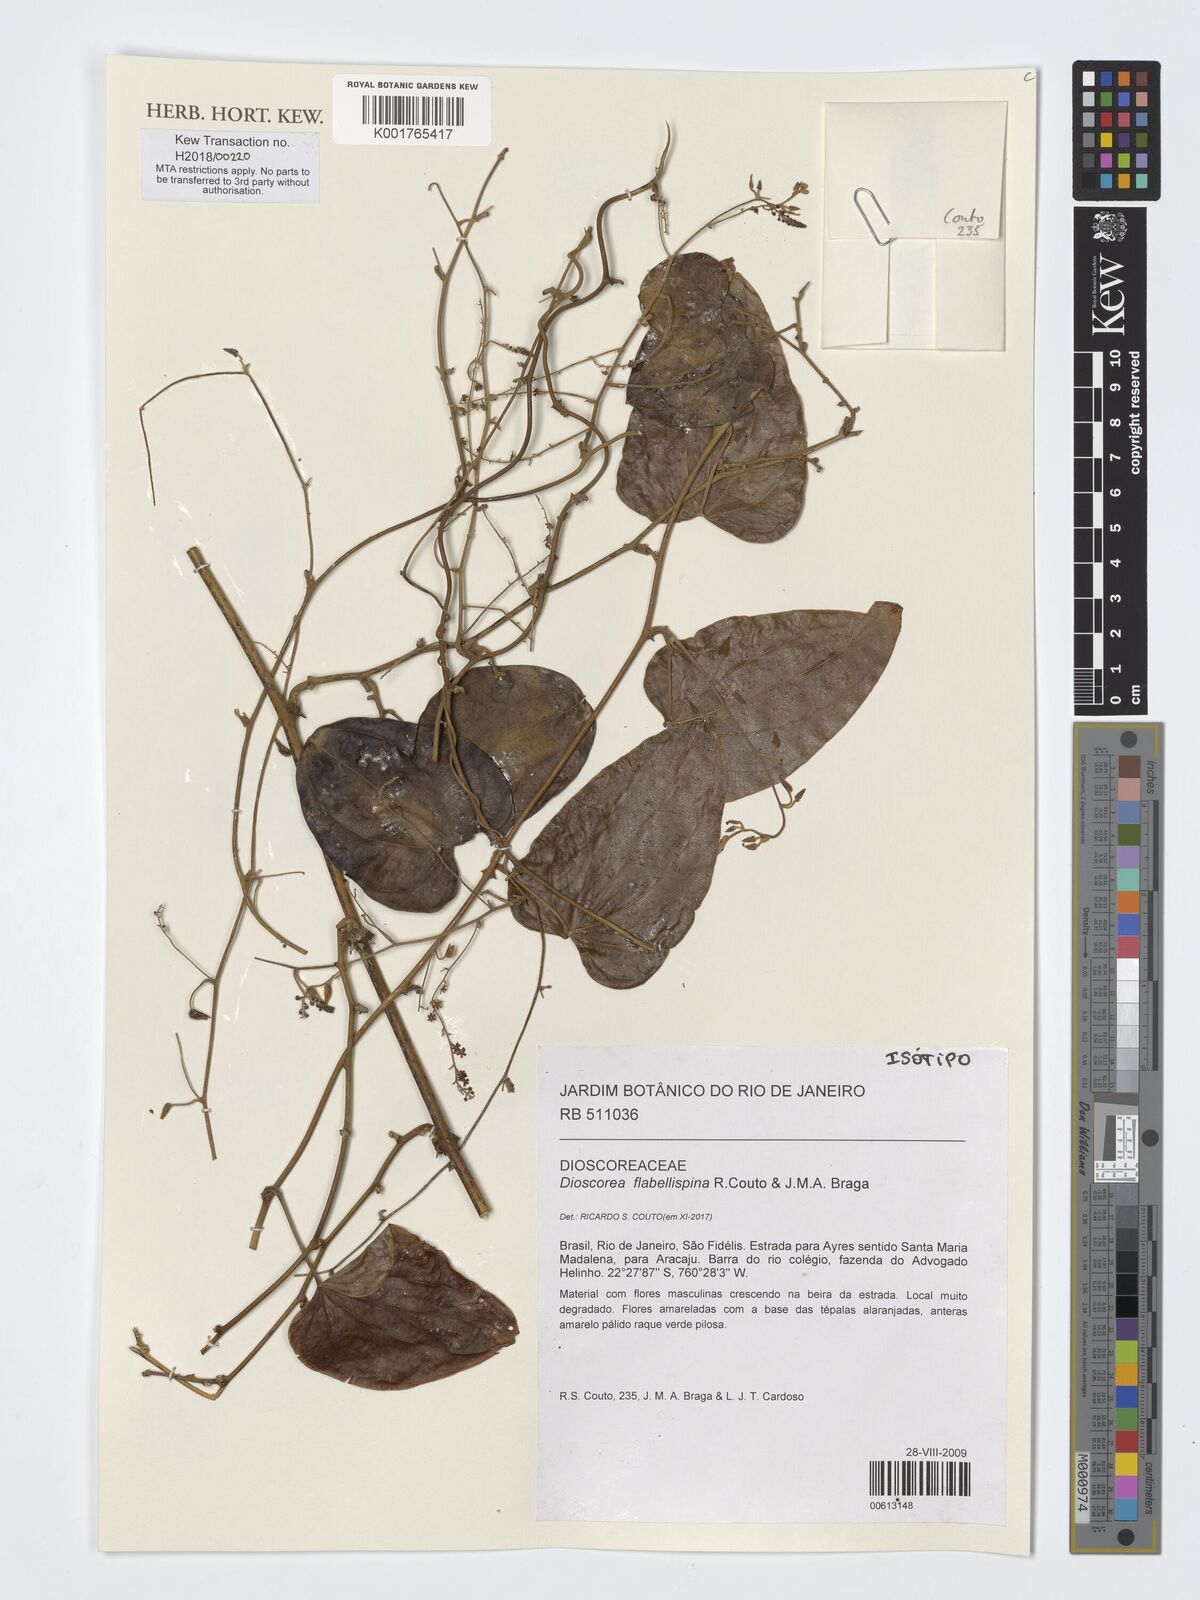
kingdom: Plantae
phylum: Tracheophyta
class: Liliopsida
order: Dioscoreales
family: Dioscoreaceae
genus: Dioscorea
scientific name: Dioscorea flabellispina
